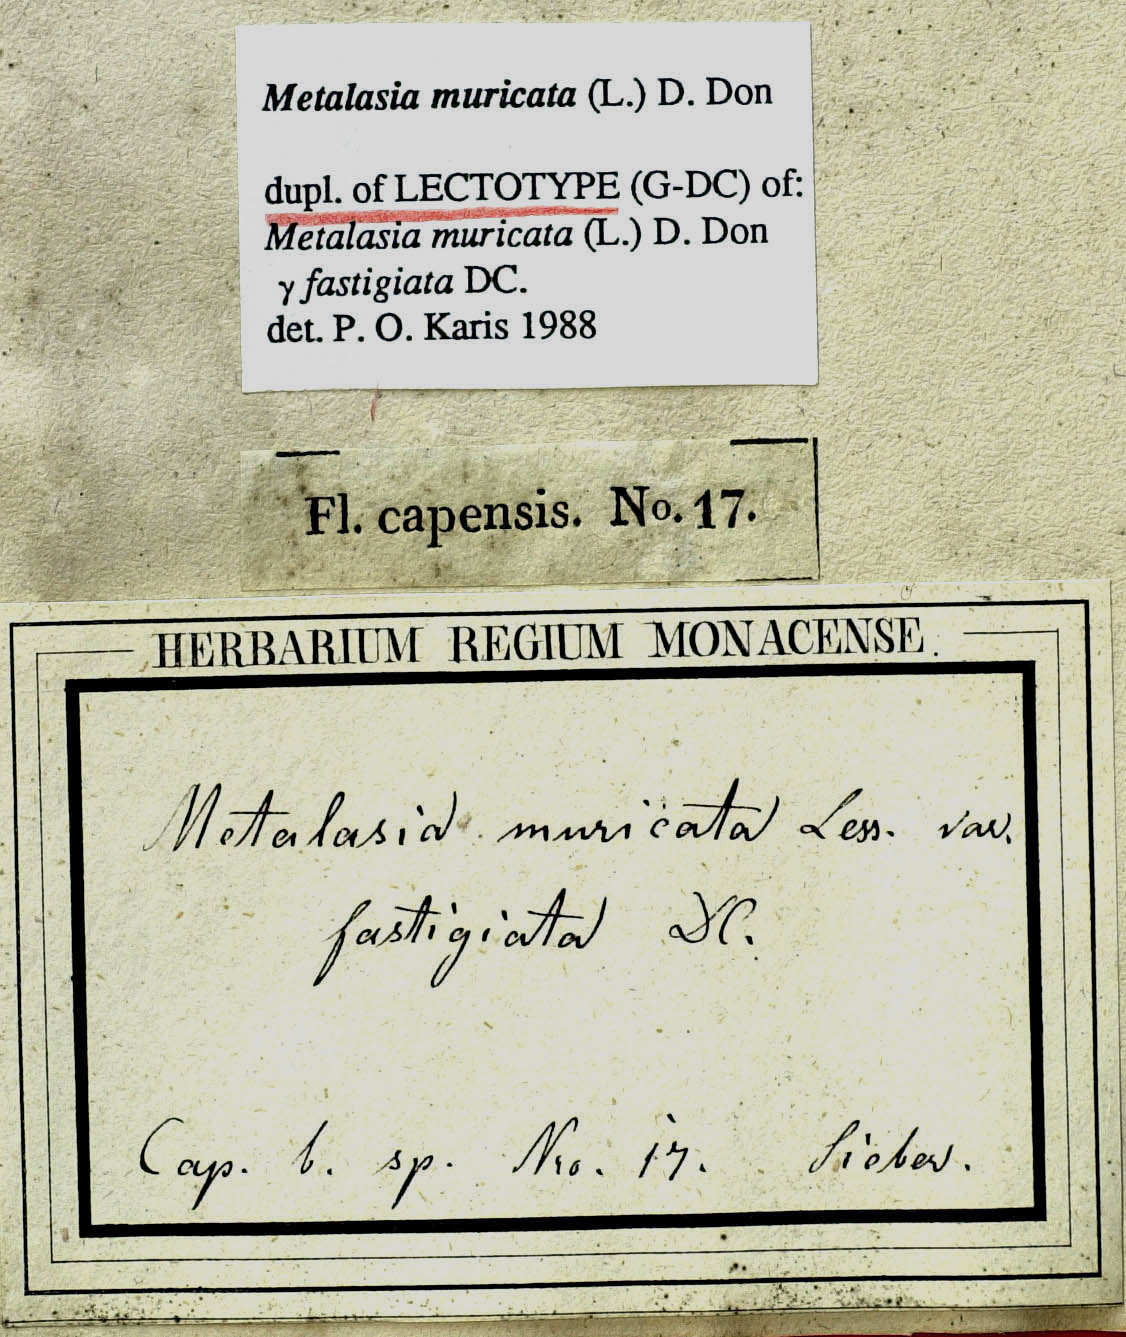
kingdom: Plantae
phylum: Tracheophyta
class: Magnoliopsida
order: Asterales
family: Asteraceae
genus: Metalasia
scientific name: Metalasia muricata
